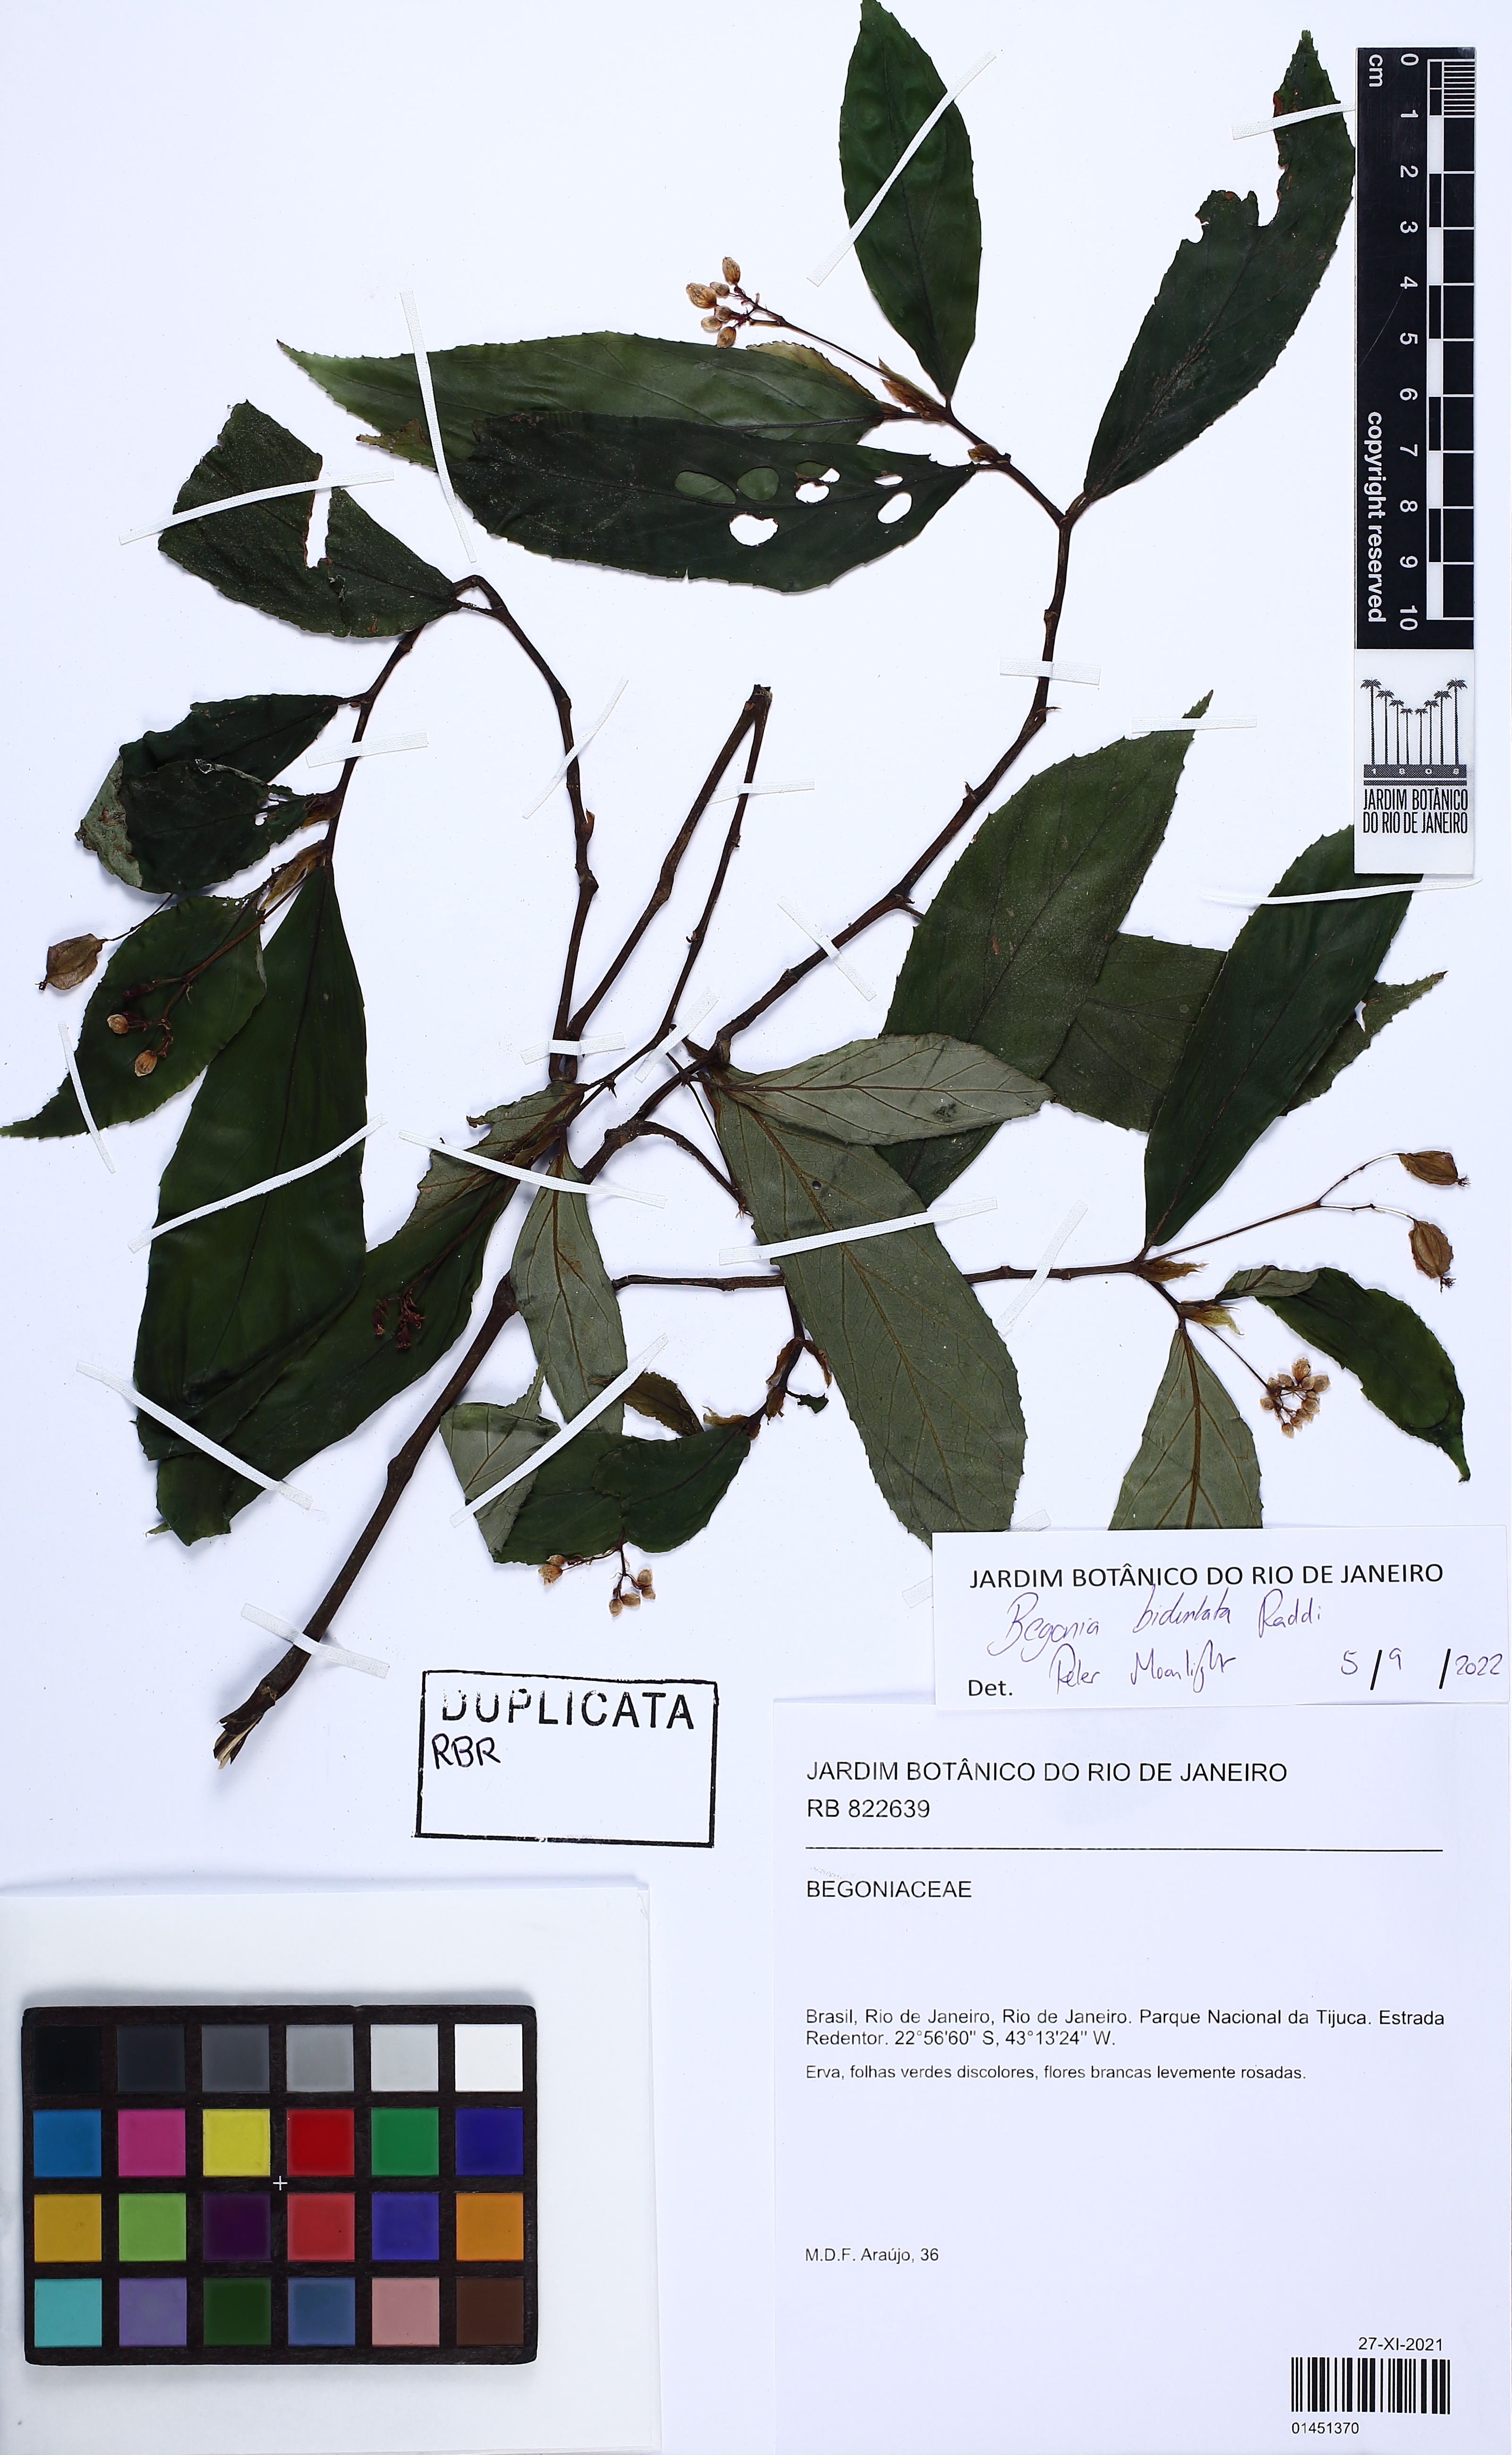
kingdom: Plantae
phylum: Tracheophyta
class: Magnoliopsida
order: Cucurbitales
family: Begoniaceae
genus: Begonia
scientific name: Begonia bidentata
